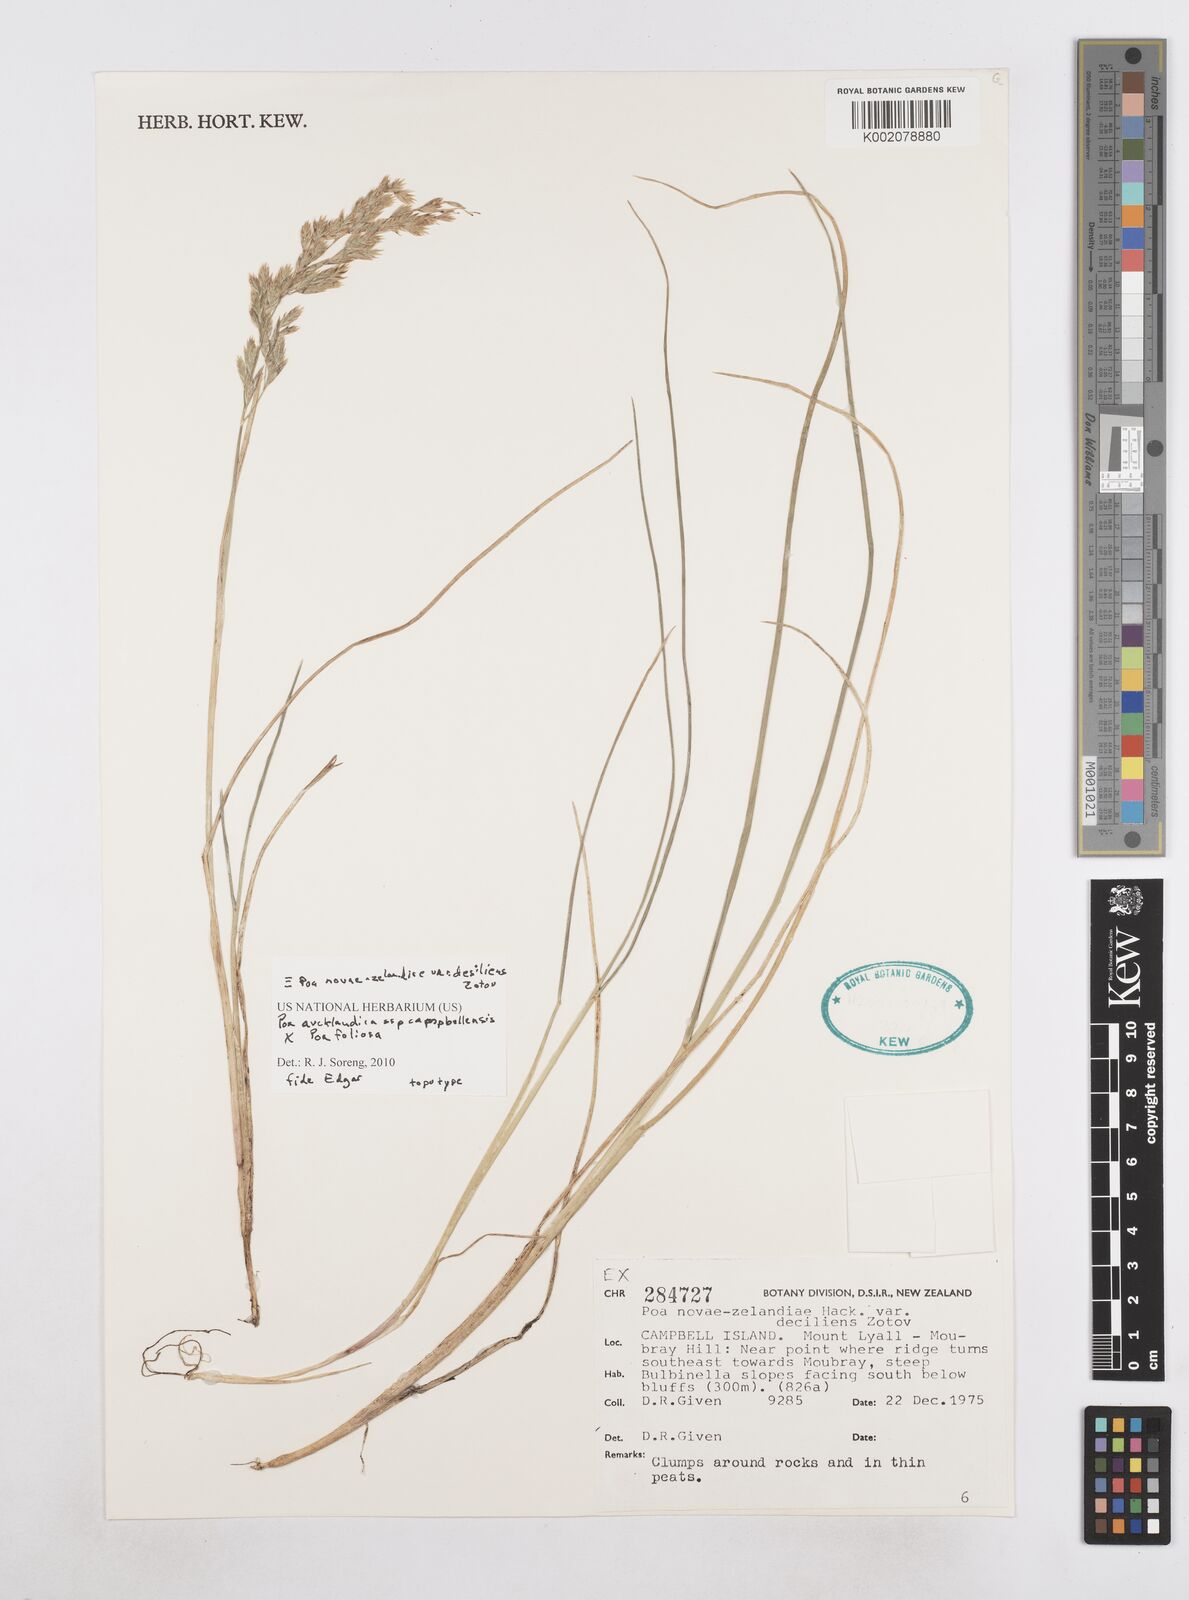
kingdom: Plantae
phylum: Tracheophyta
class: Liliopsida
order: Poales
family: Poaceae
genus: Poa
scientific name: Poa novae-zelandiae
